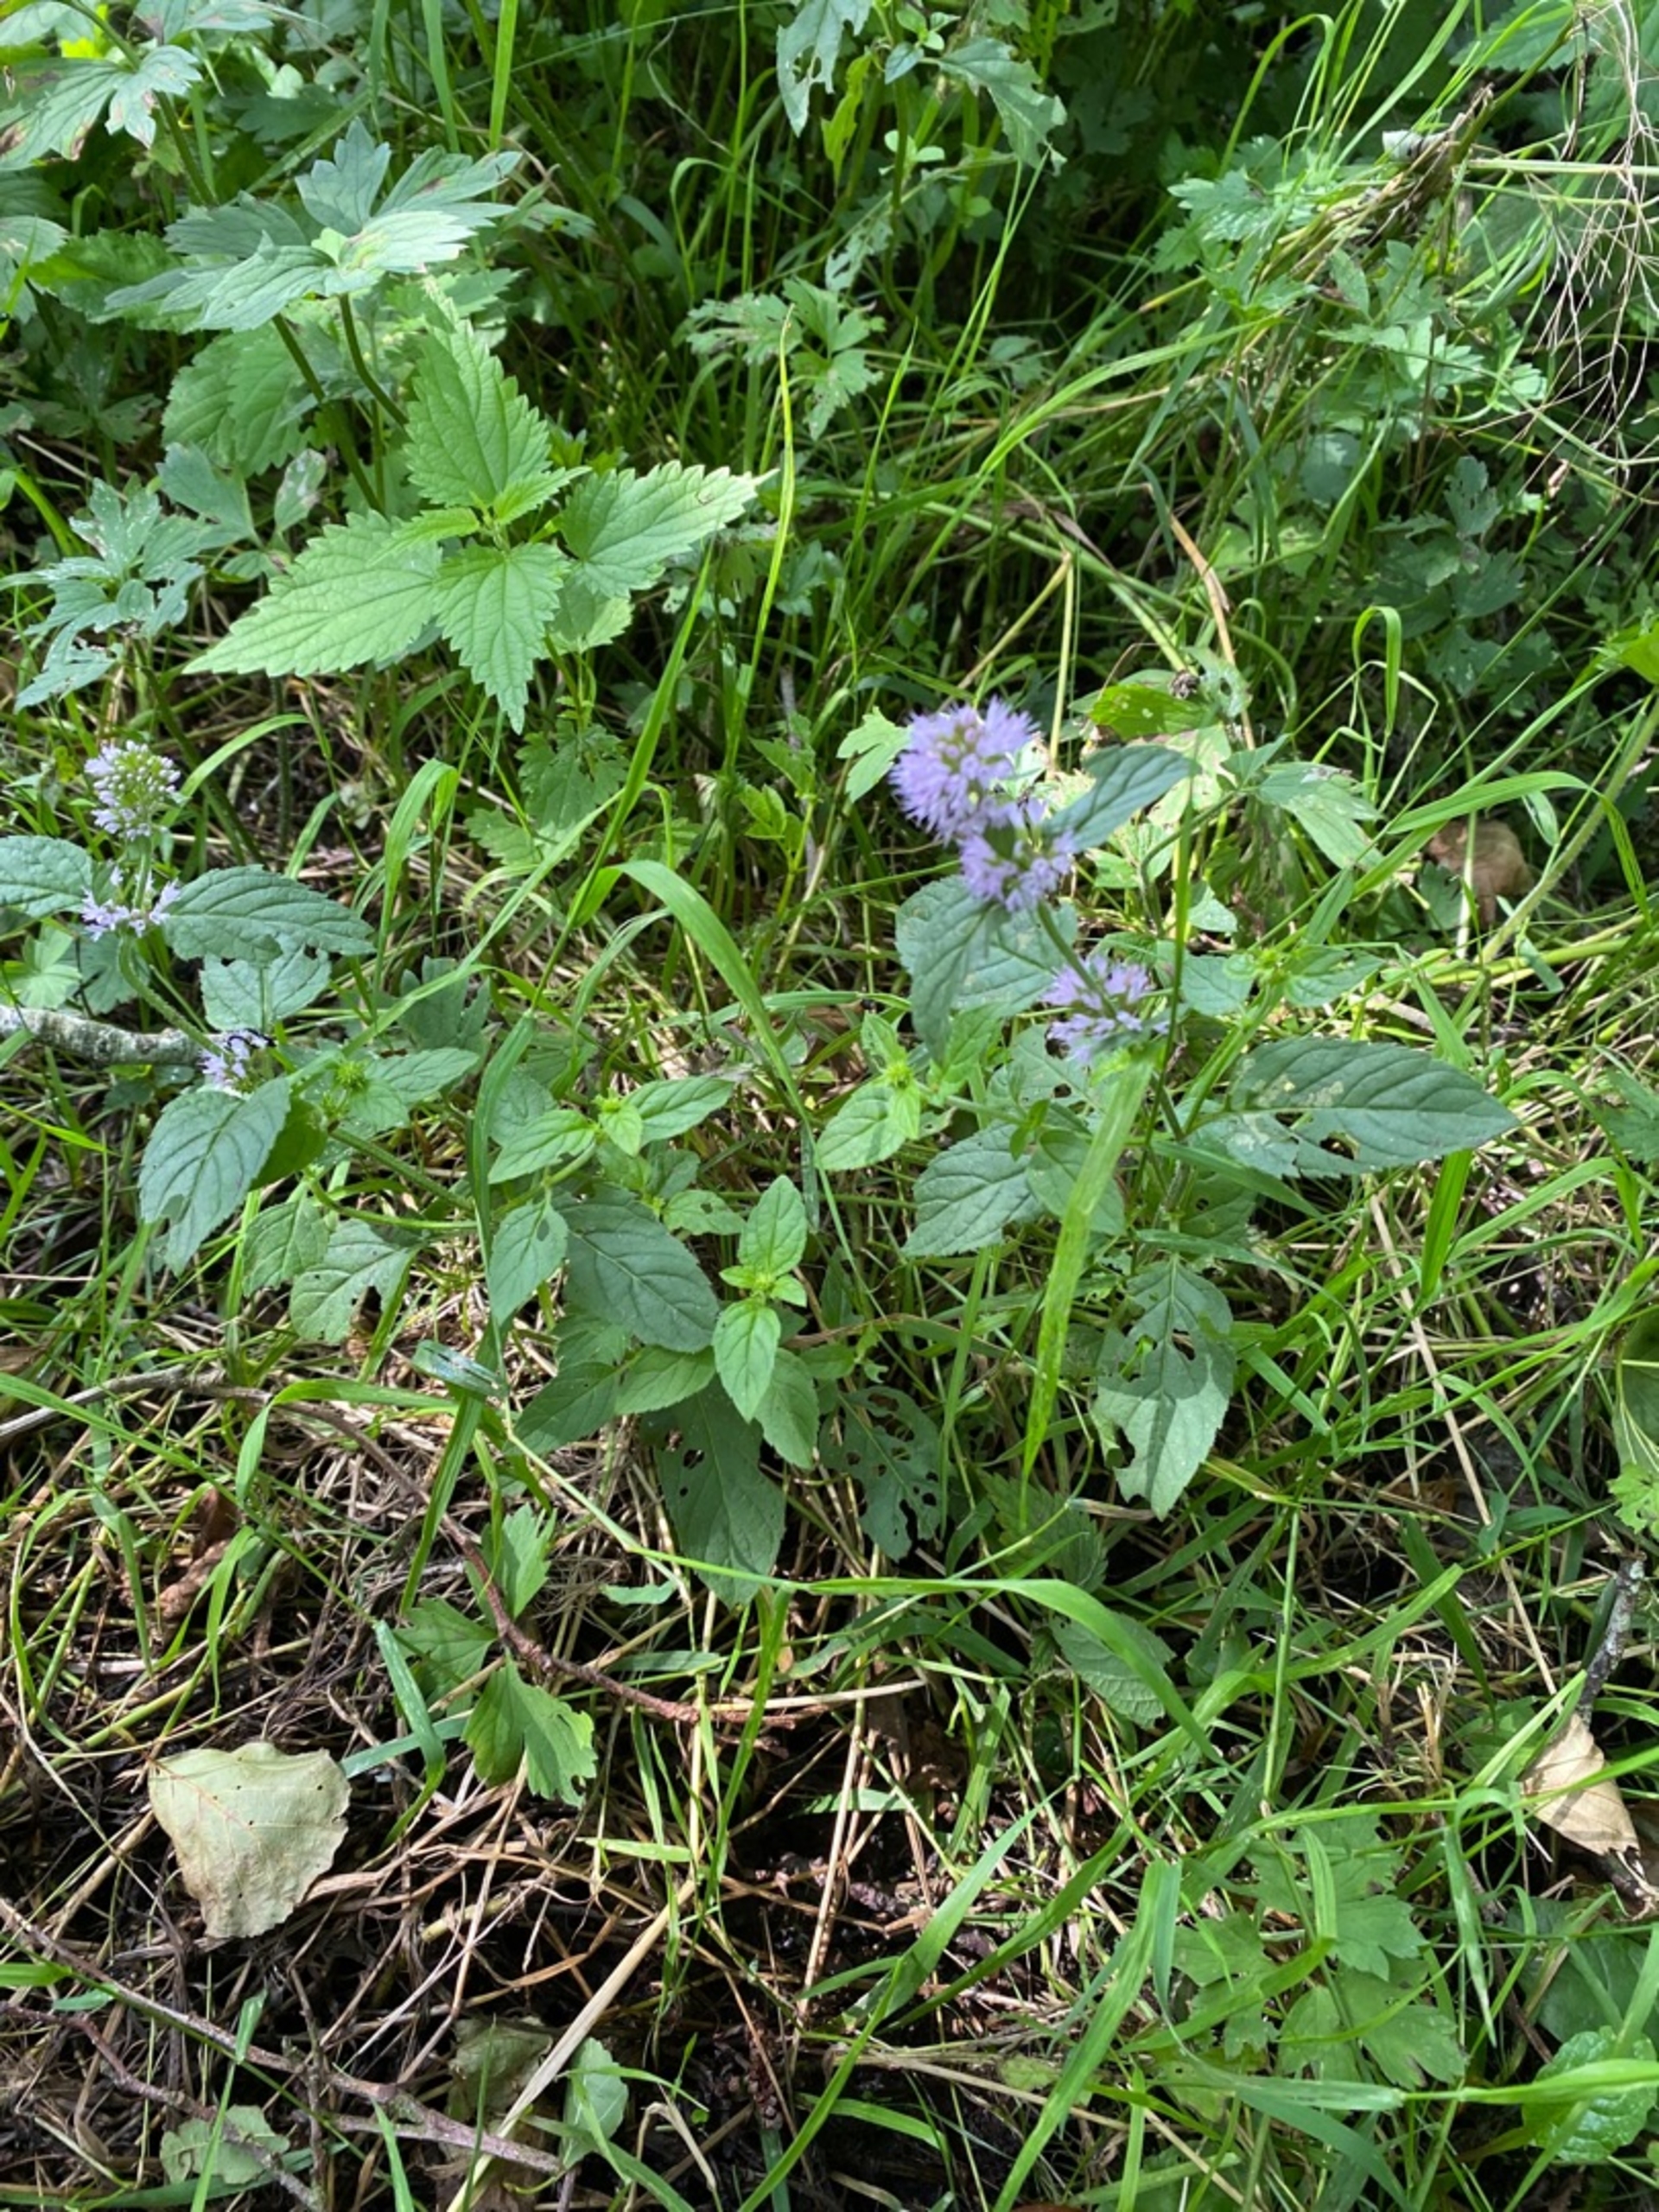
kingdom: Plantae
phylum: Tracheophyta
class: Magnoliopsida
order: Lamiales
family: Lamiaceae
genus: Mentha
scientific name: Mentha aquatica
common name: Vand-mynte
